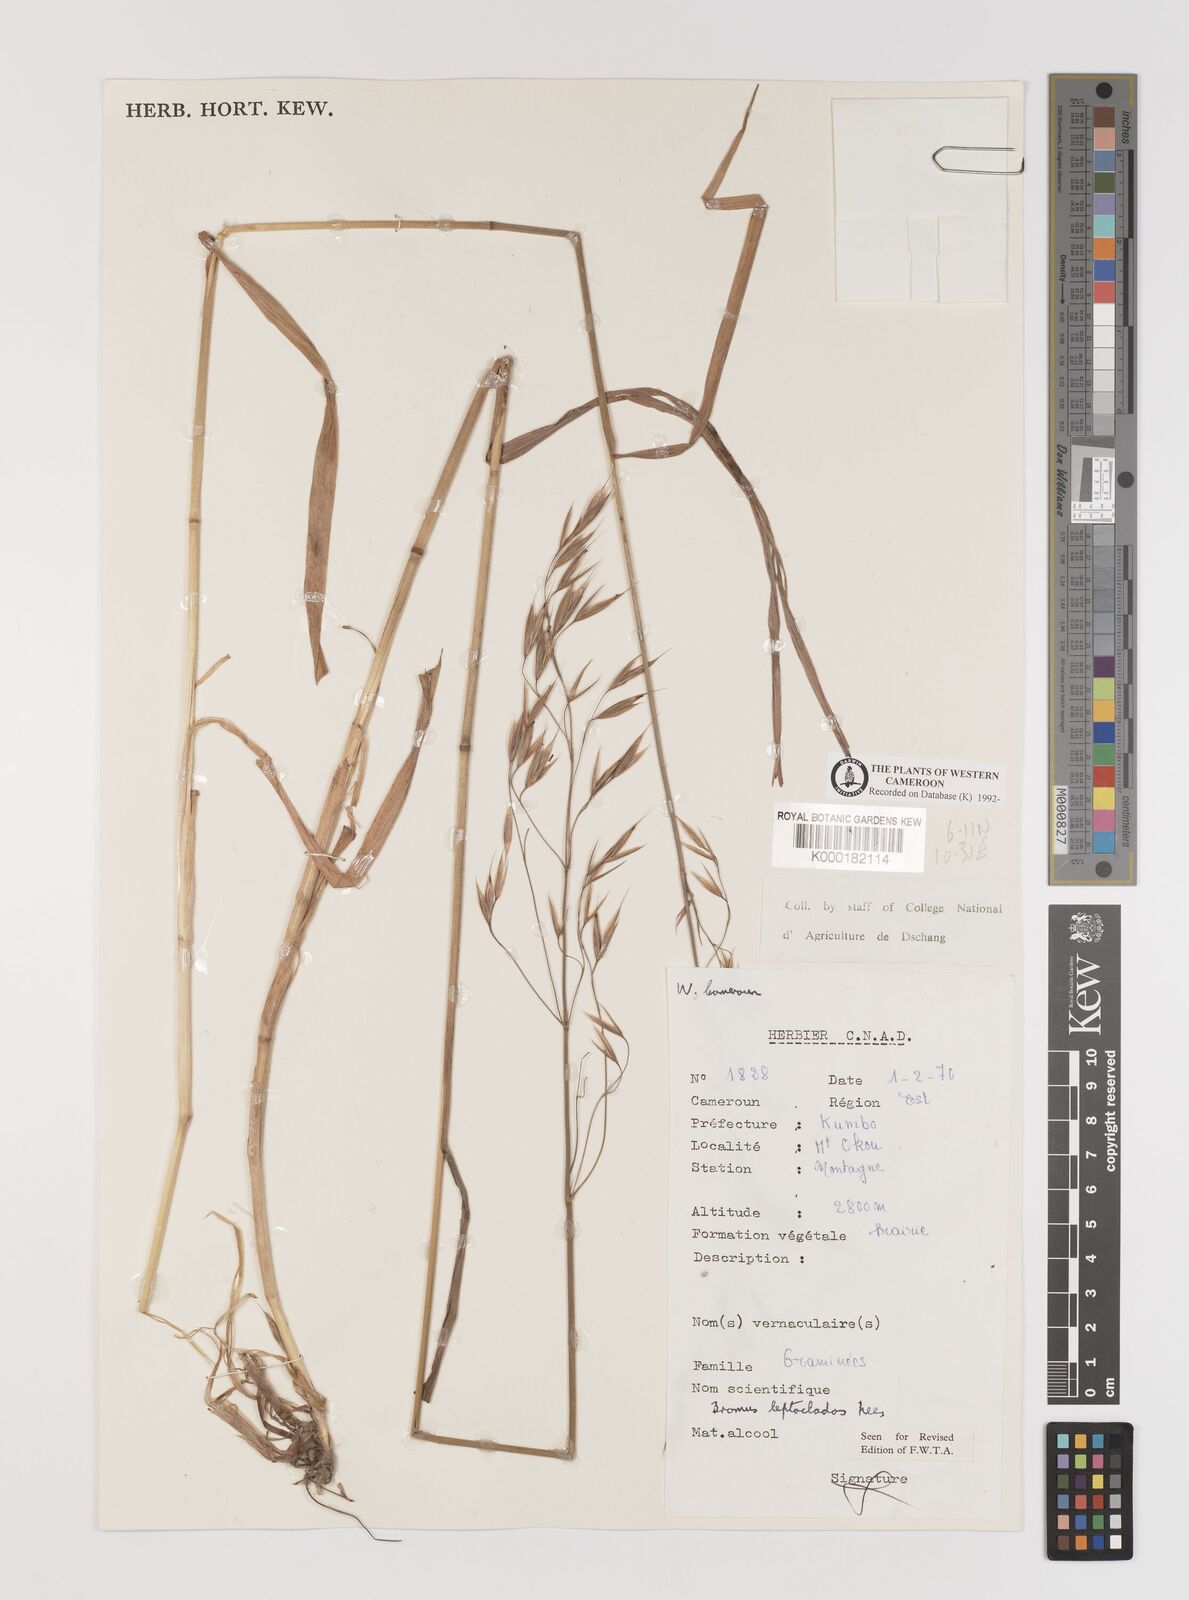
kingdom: Plantae
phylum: Tracheophyta
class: Liliopsida
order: Poales
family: Poaceae
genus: Bromus
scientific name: Bromus leptoclados
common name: Mountain bromegrass
